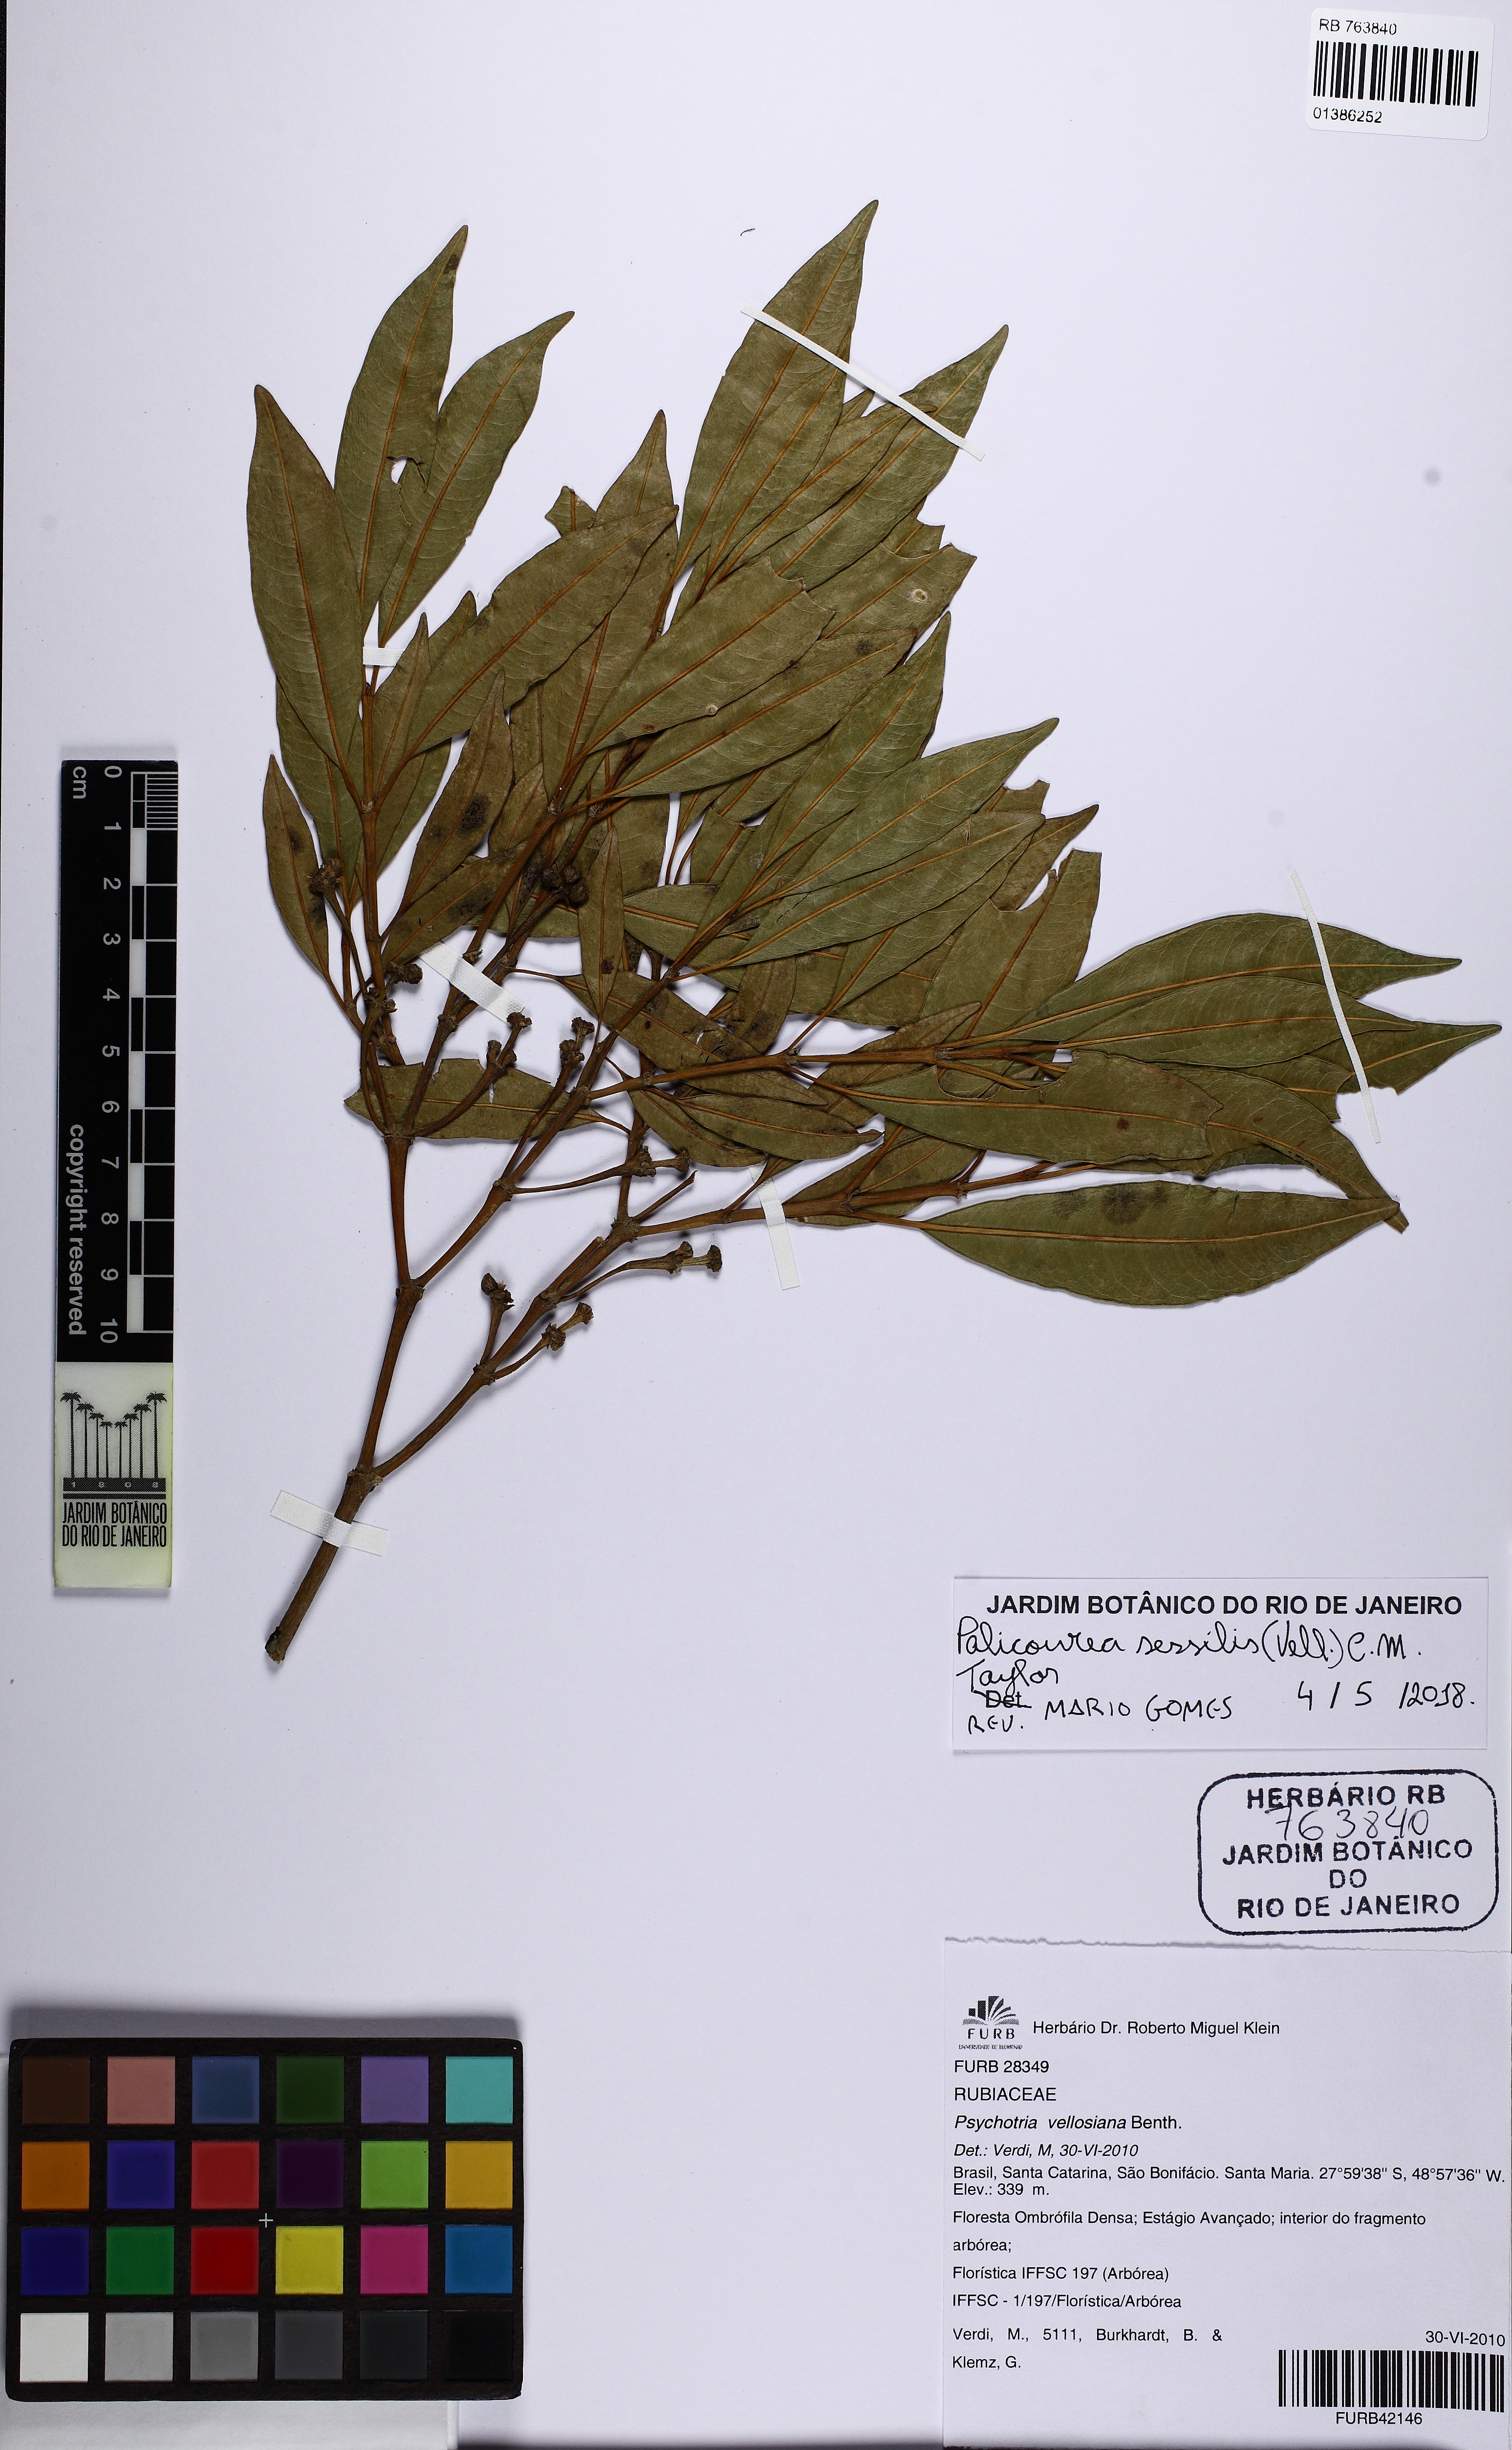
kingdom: Plantae
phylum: Tracheophyta
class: Magnoliopsida
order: Gentianales
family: Rubiaceae
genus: Palicourea
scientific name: Palicourea sessilis
